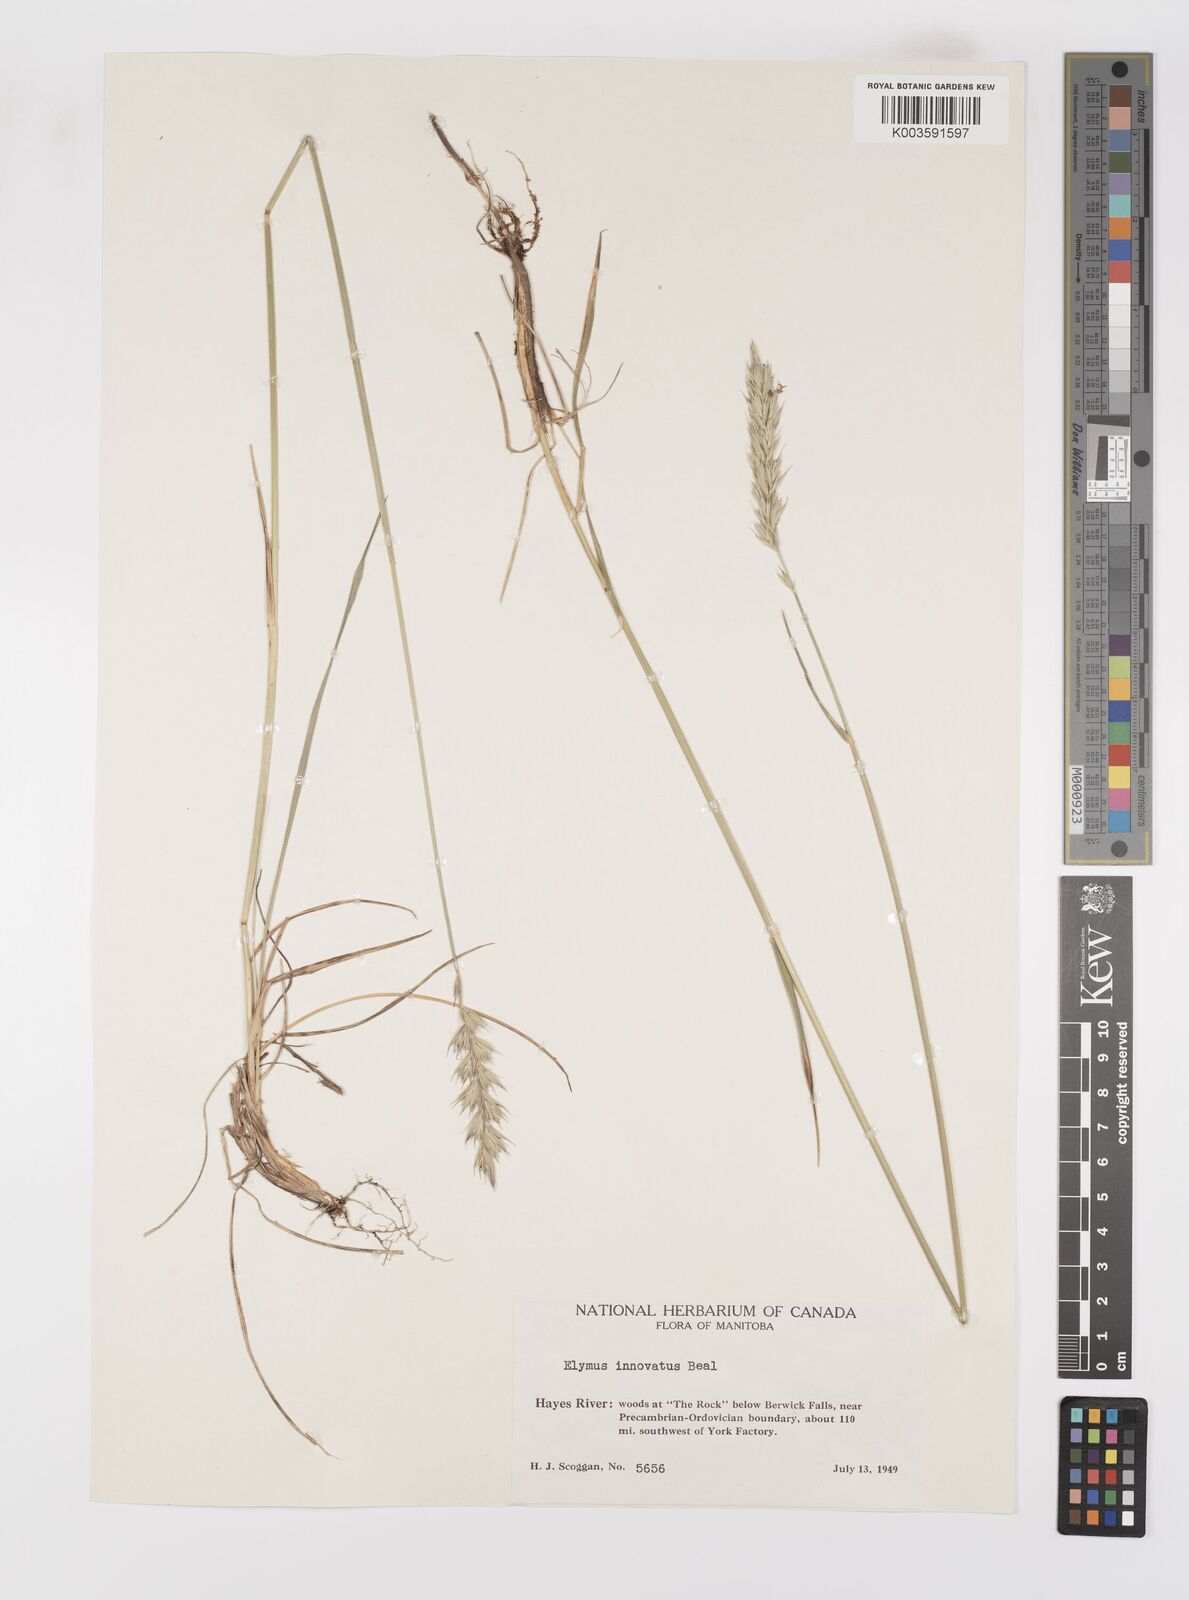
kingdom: Plantae
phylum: Tracheophyta
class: Liliopsida
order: Poales
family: Poaceae
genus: Leymus
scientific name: Leymus innovatus
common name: Boreal wild rye
